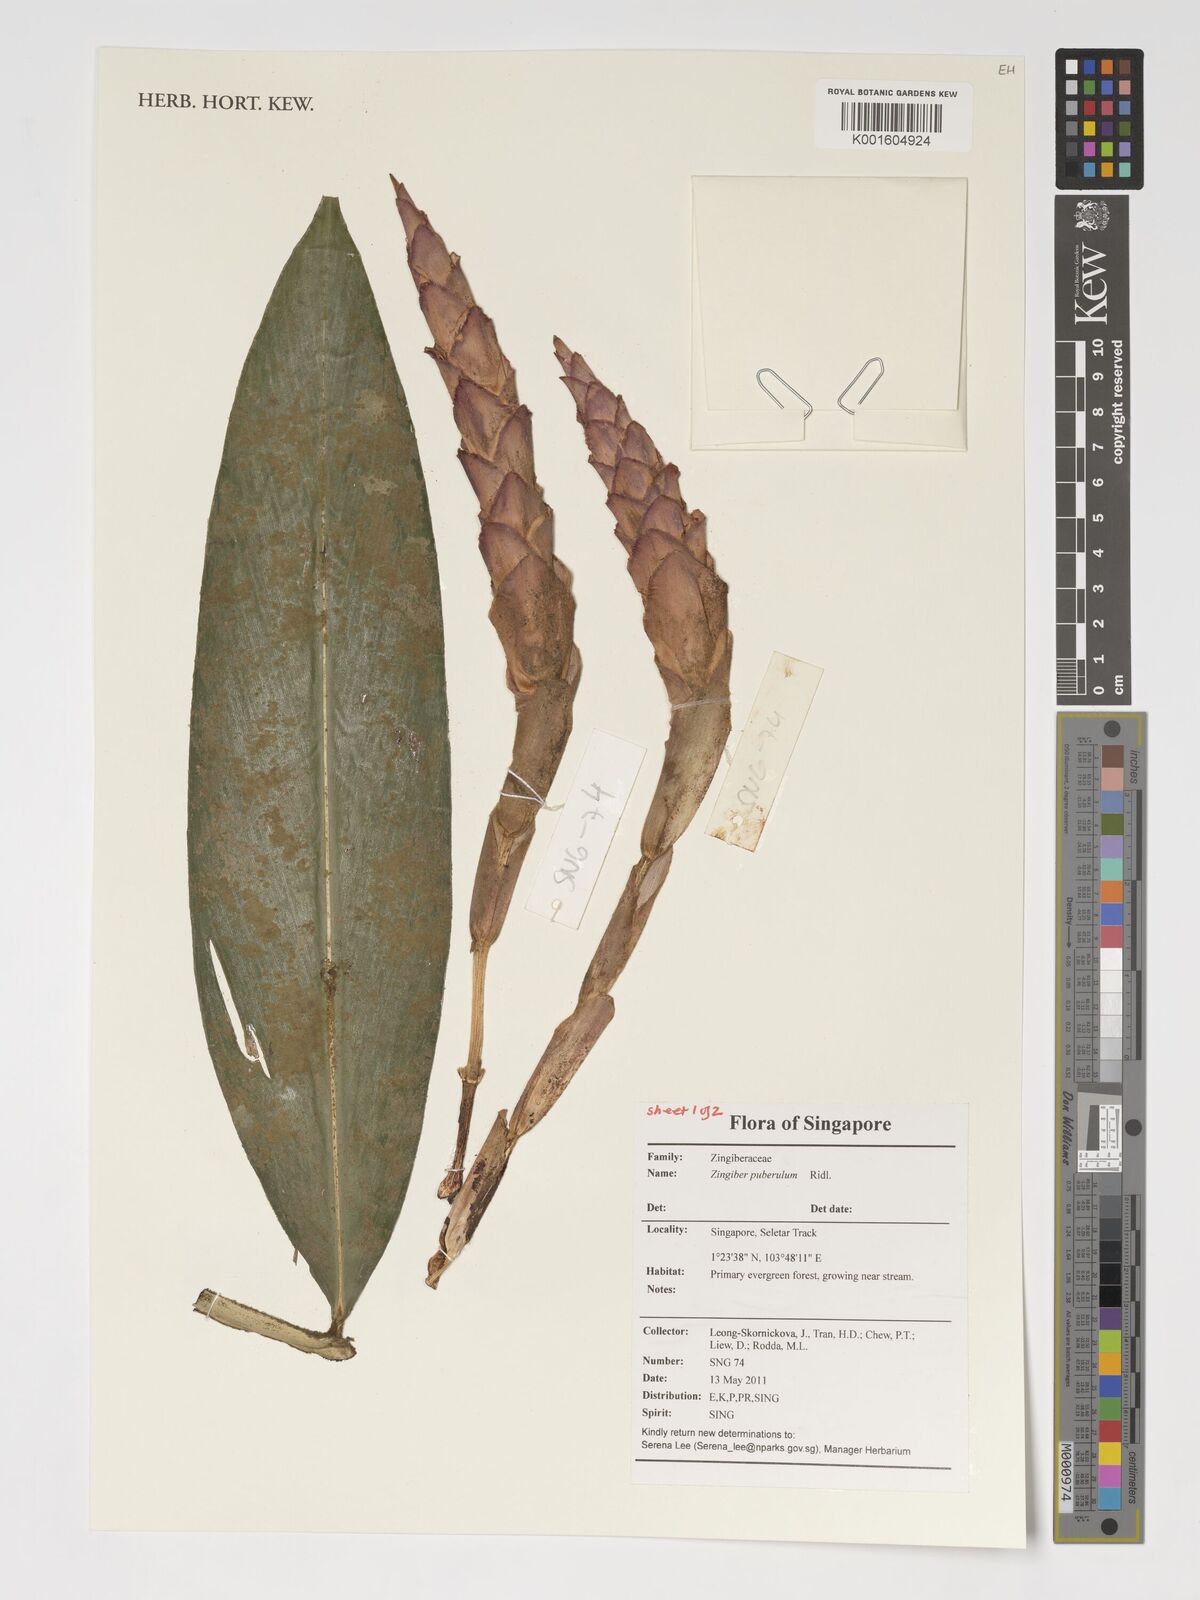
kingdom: Plantae
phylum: Tracheophyta
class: Liliopsida
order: Zingiberales
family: Zingiberaceae
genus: Zingiber
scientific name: Zingiber puberulum
